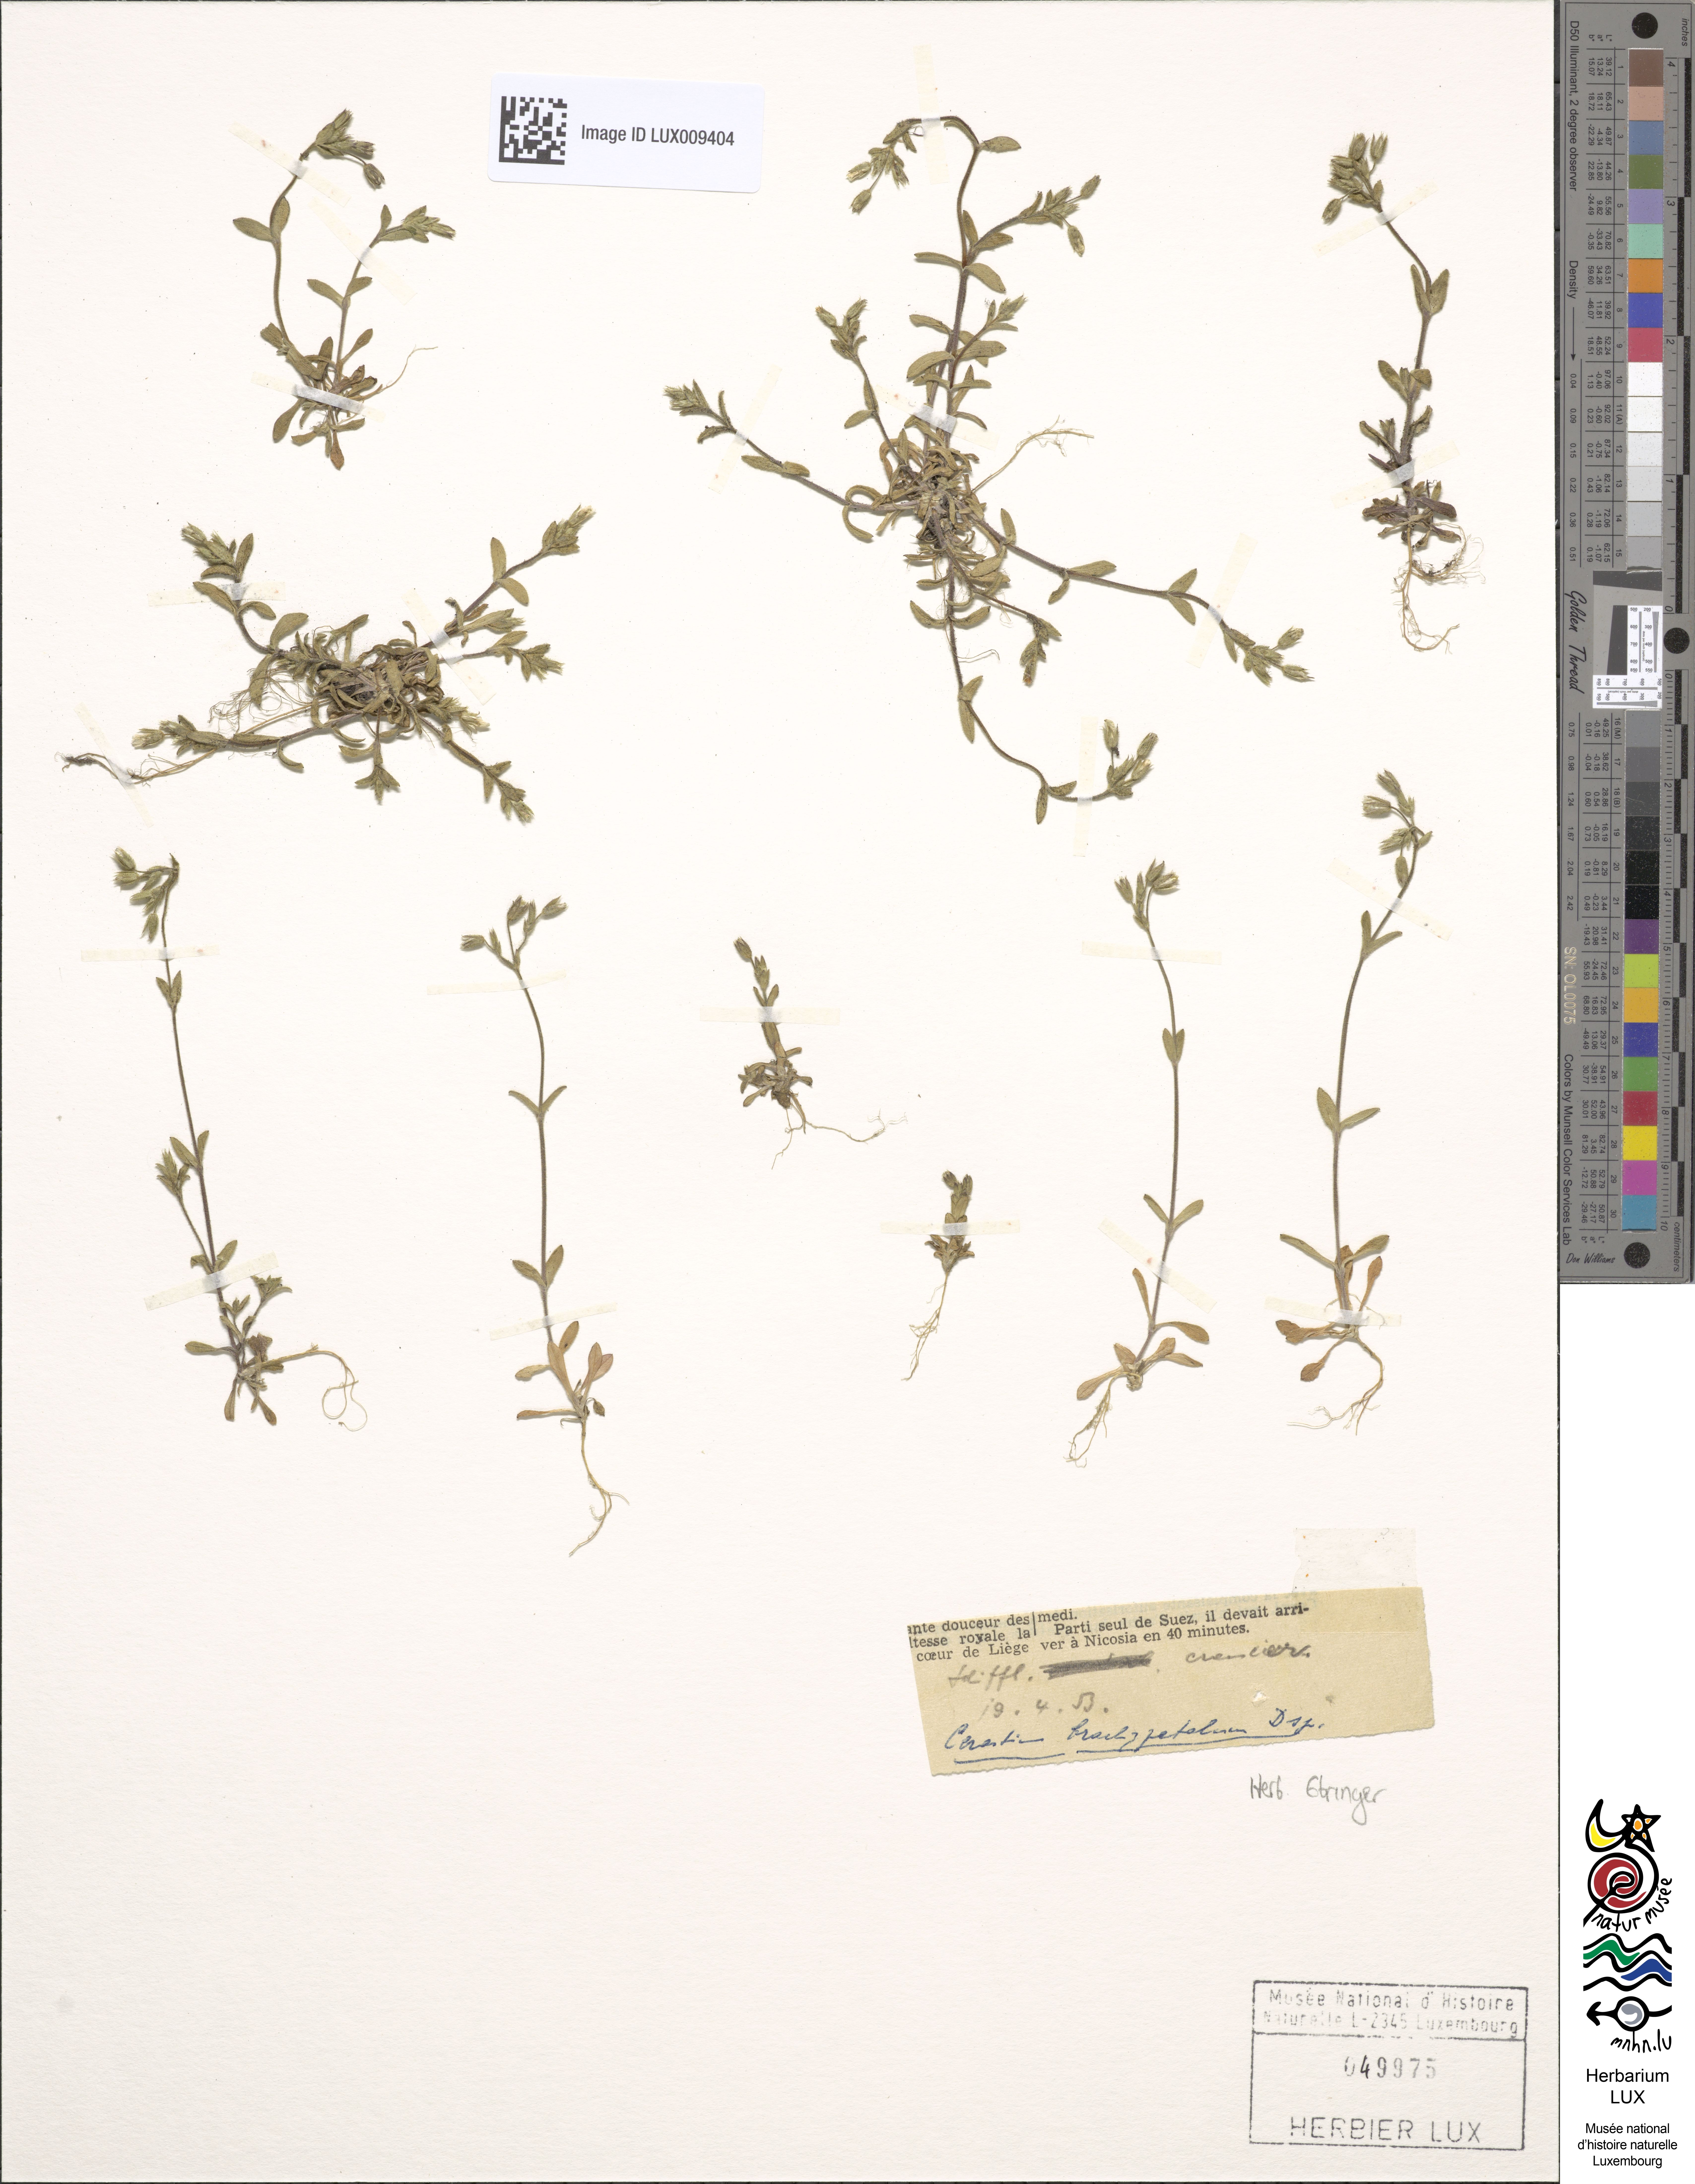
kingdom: Plantae
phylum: Tracheophyta
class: Magnoliopsida
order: Caryophyllales
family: Caryophyllaceae
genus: Cerastium
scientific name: Cerastium brachypetalum
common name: Grey mouse-ear
